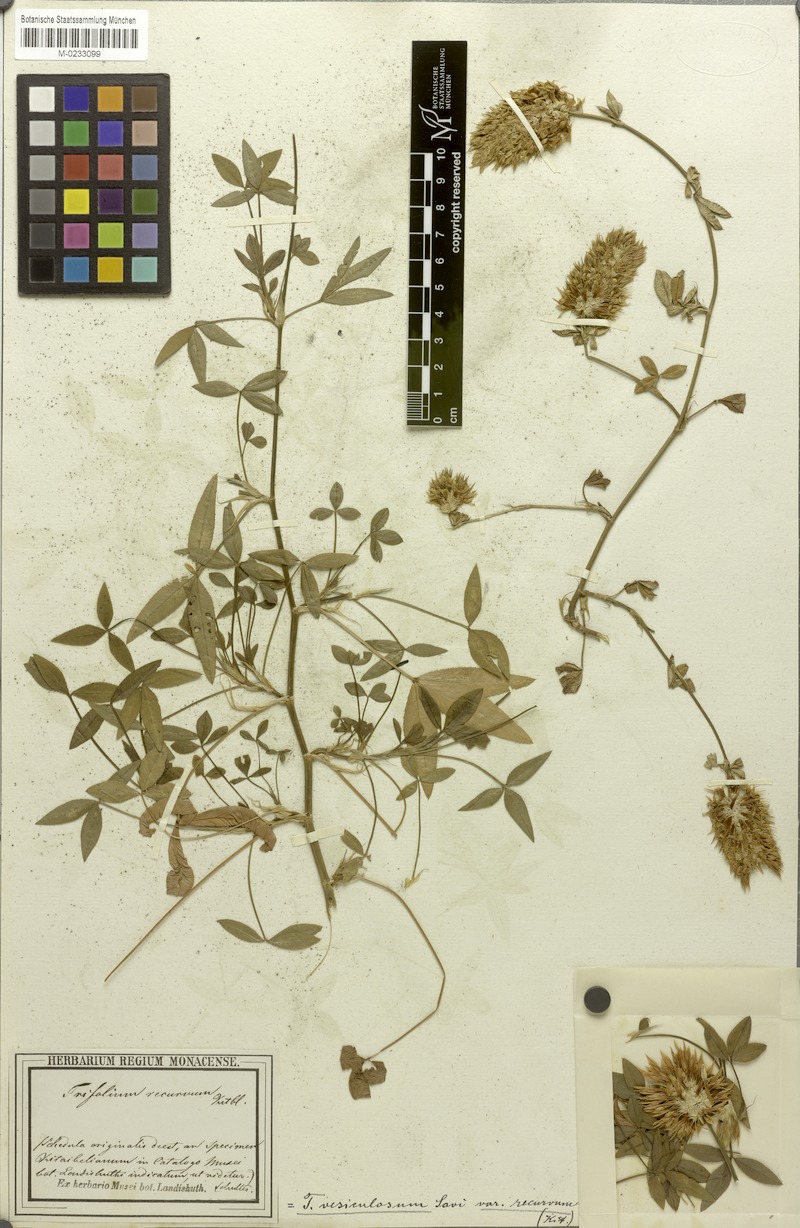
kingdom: Plantae
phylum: Tracheophyta
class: Magnoliopsida
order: Fabales
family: Fabaceae
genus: Trifolium
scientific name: Trifolium vesiculosum
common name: Arrowleaf clover
